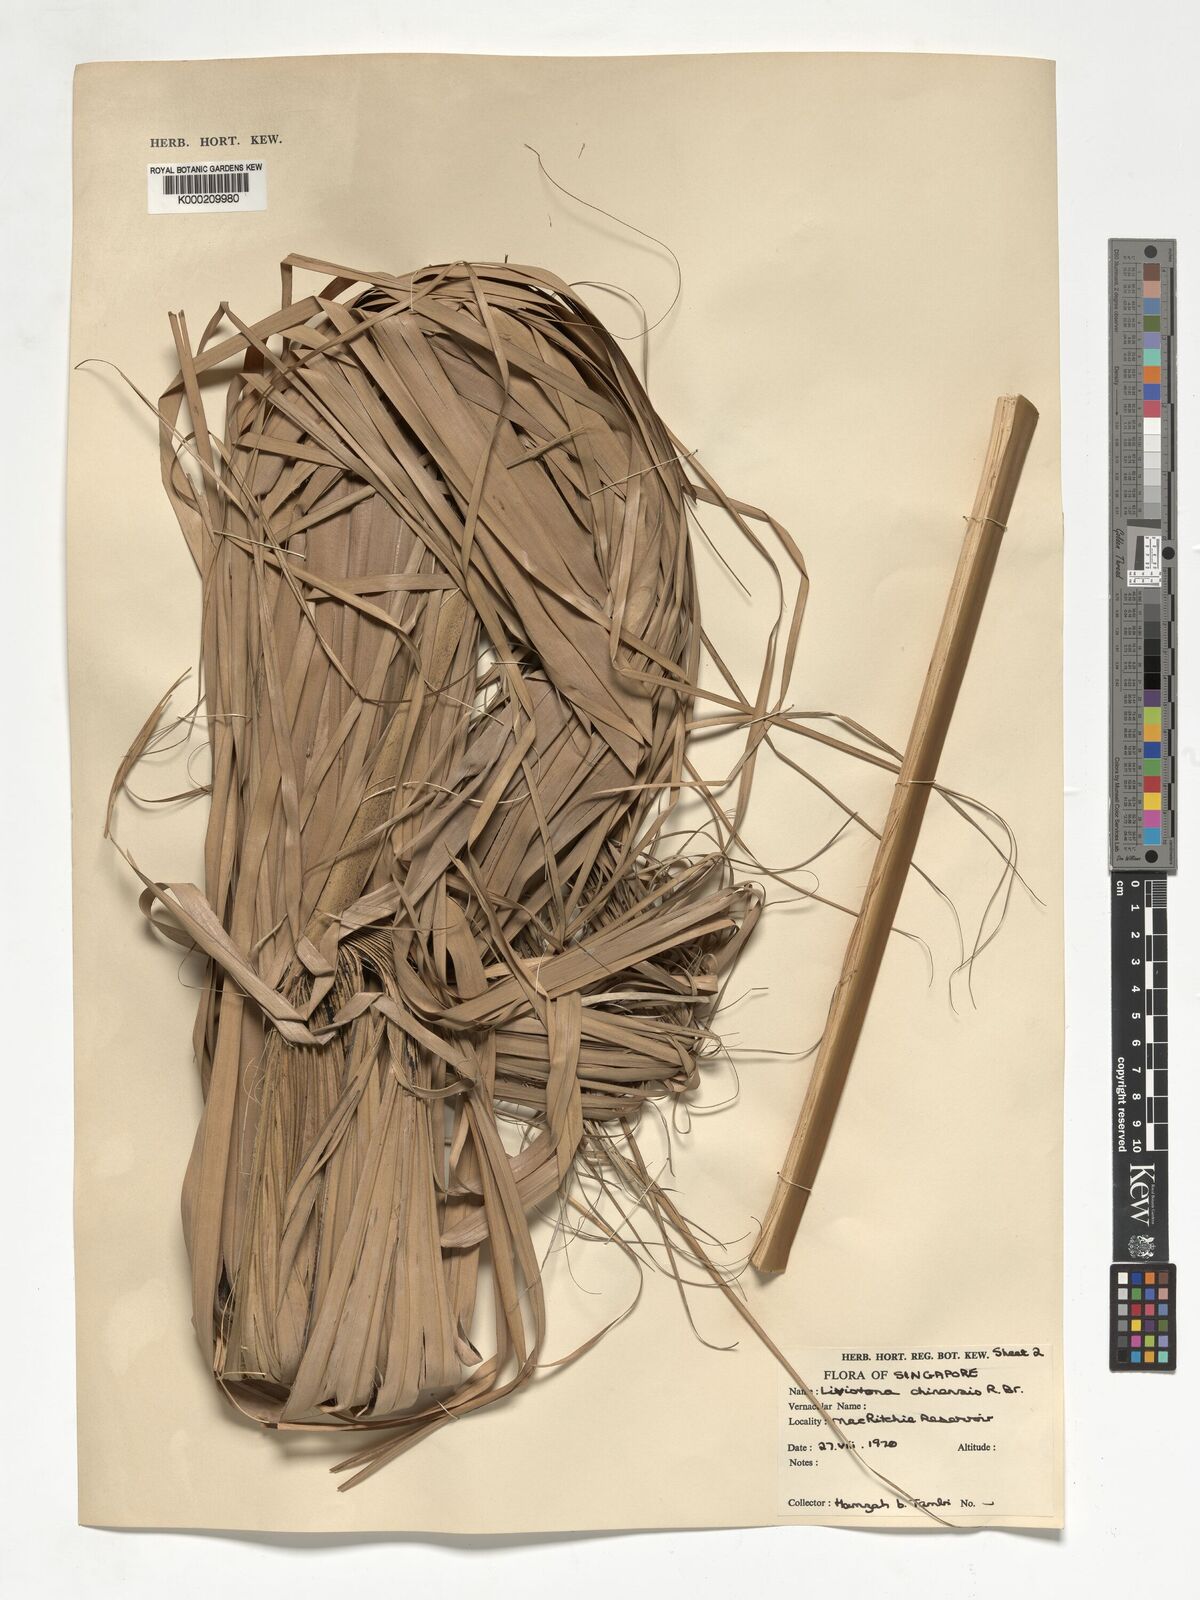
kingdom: Plantae
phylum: Tracheophyta
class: Liliopsida
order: Arecales
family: Arecaceae
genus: Livistona
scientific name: Livistona chinensis
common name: Fountain palm
